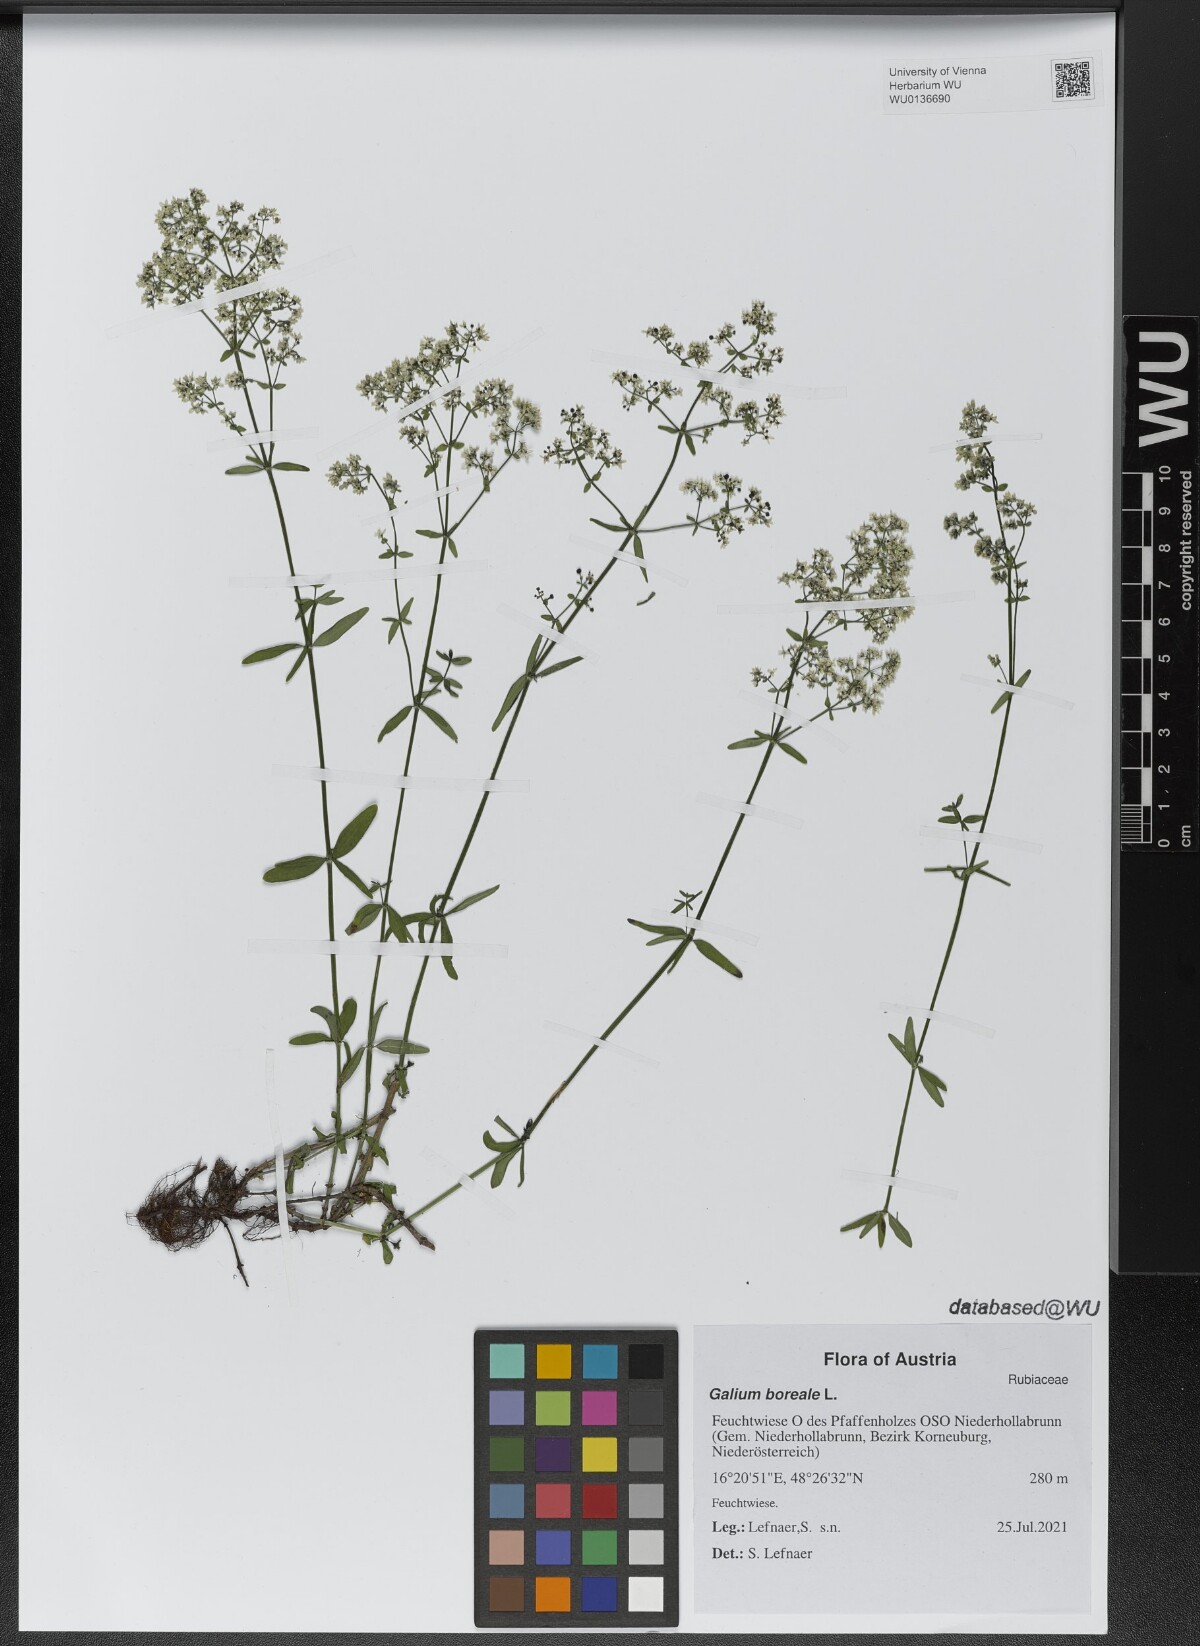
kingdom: Plantae
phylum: Tracheophyta
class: Magnoliopsida
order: Gentianales
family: Rubiaceae
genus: Galium
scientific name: Galium boreale
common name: Northern bedstraw
